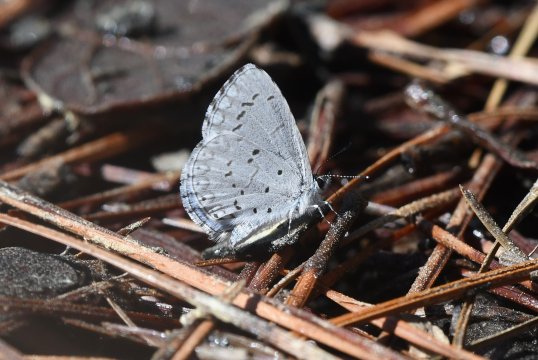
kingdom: Animalia
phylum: Arthropoda
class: Insecta
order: Lepidoptera
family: Lycaenidae
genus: Celastrina
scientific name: Celastrina idella
